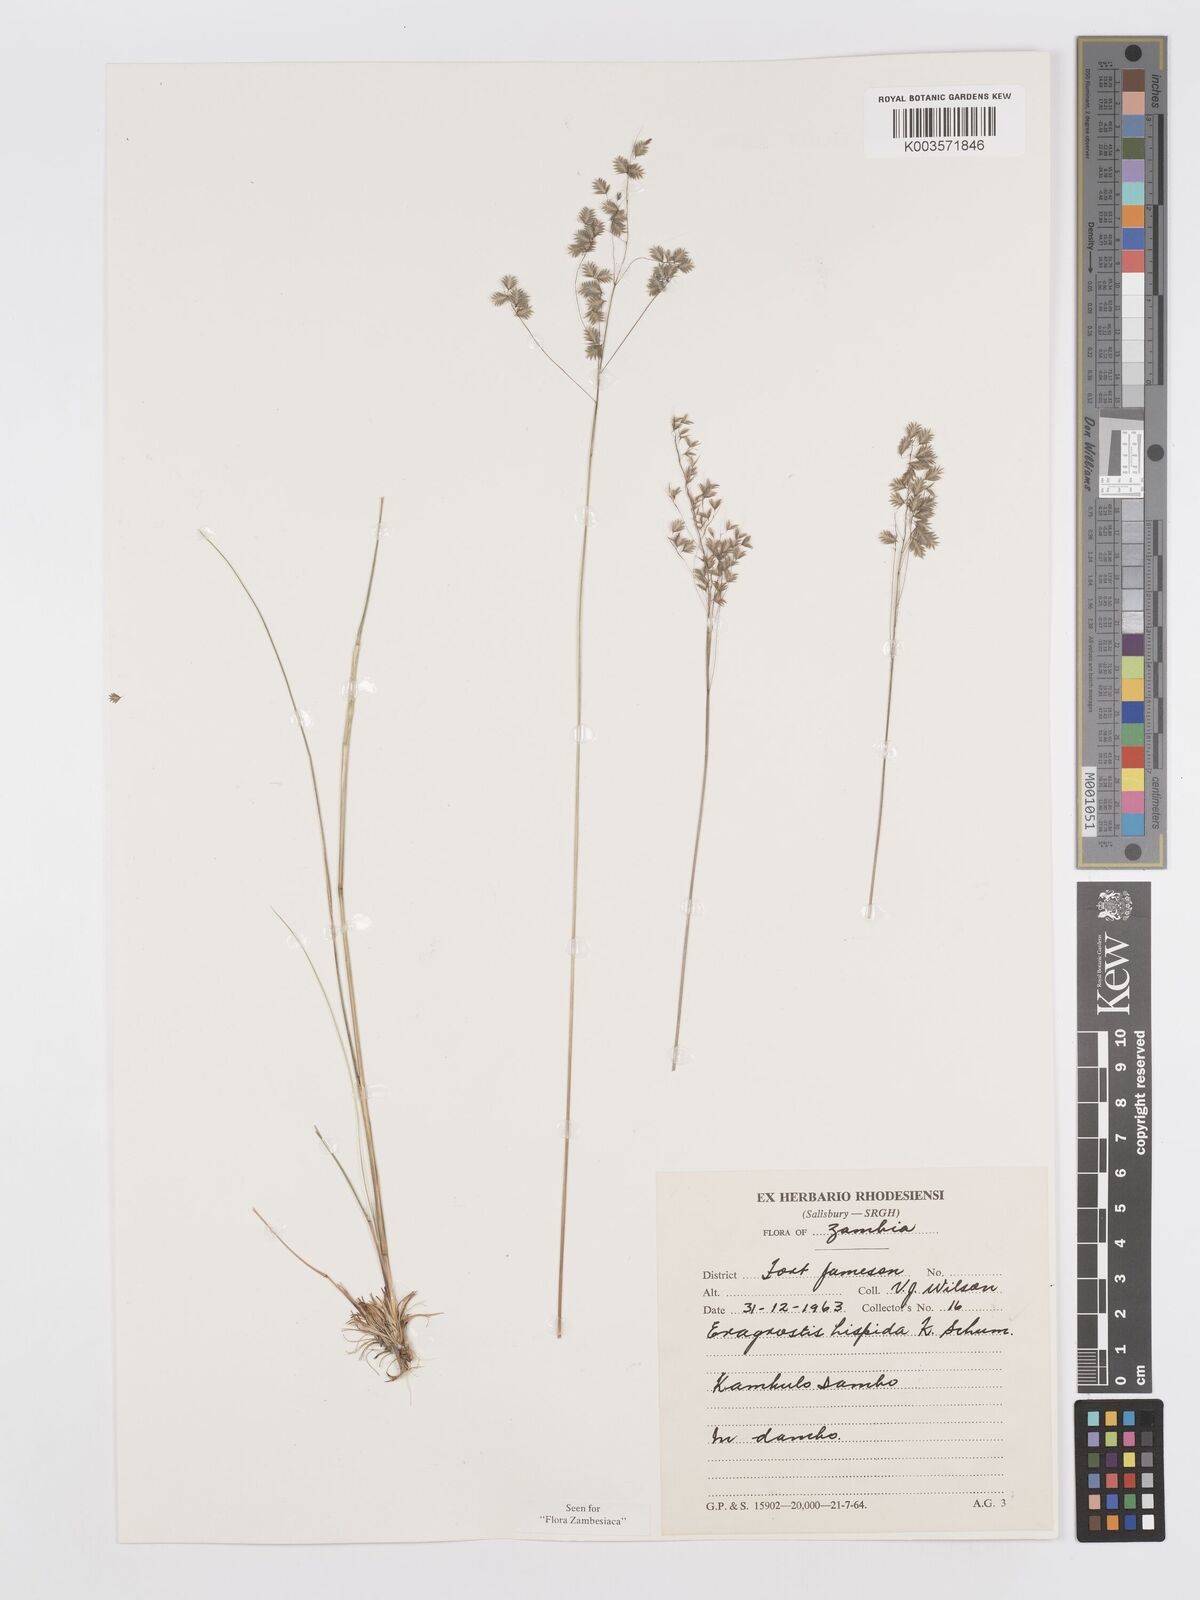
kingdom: Plantae
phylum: Tracheophyta
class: Liliopsida
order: Poales
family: Poaceae
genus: Eragrostis
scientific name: Eragrostis hispida
